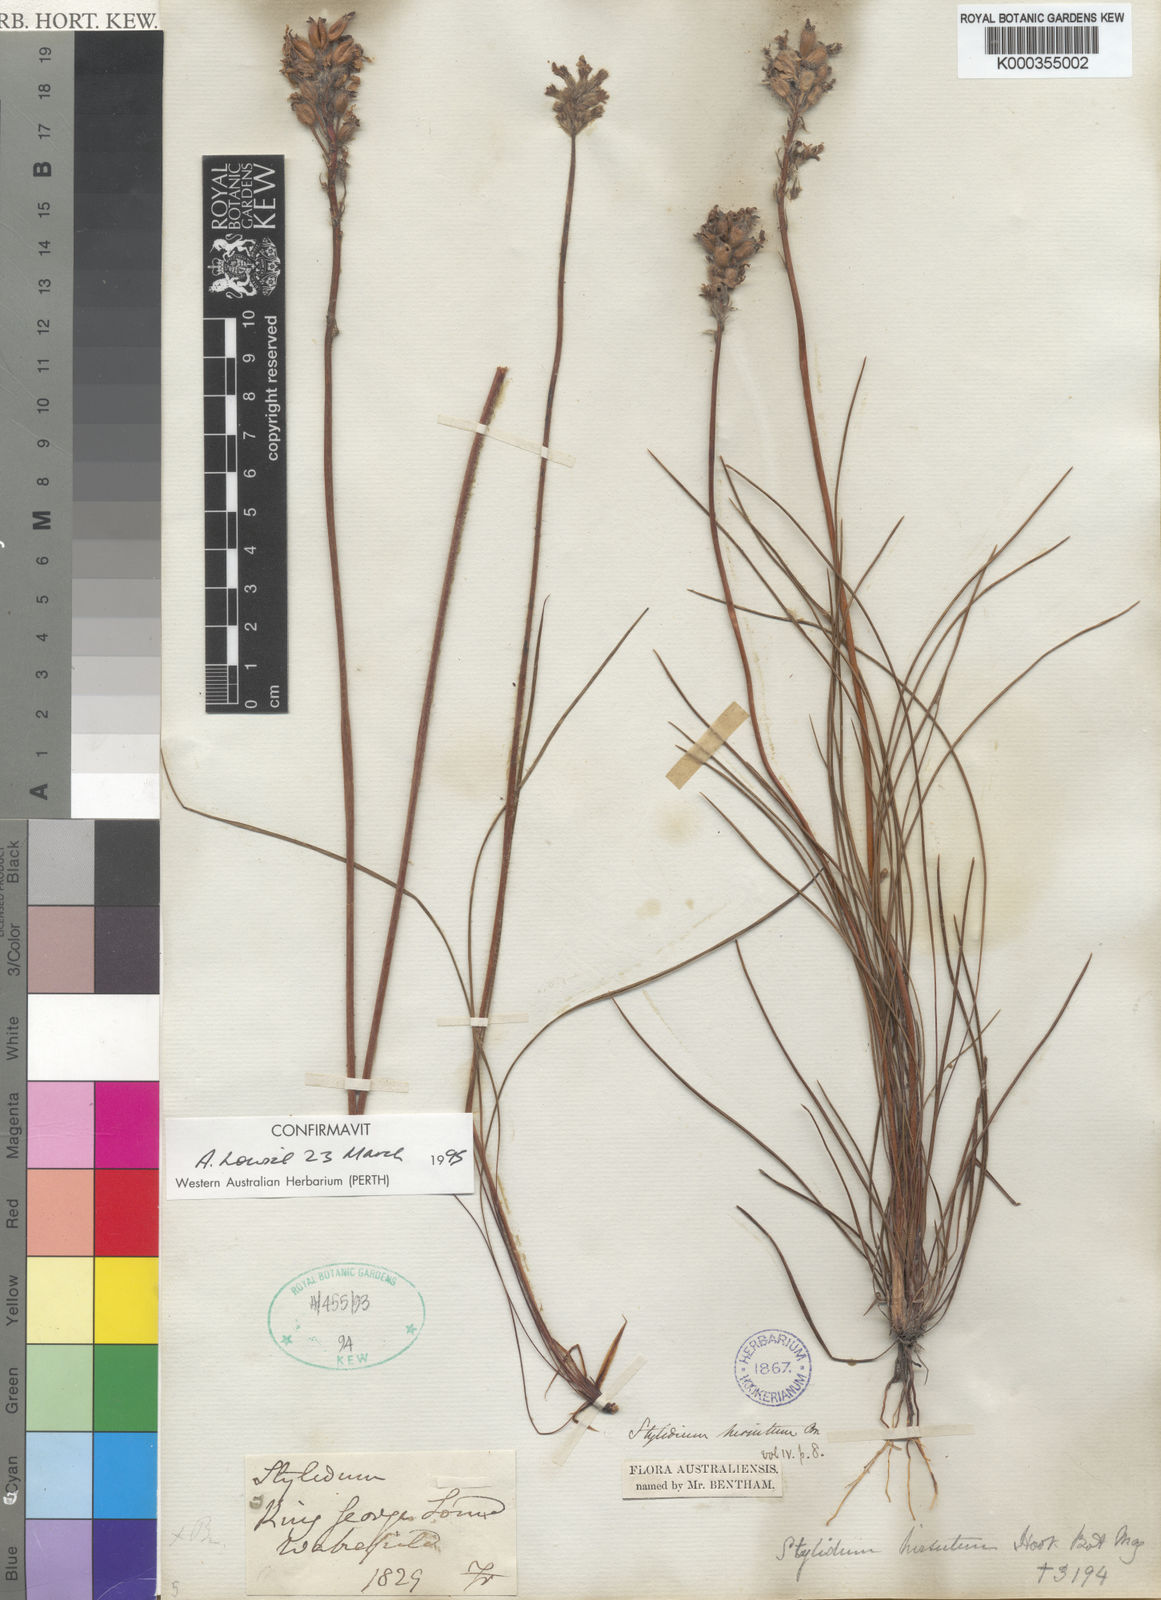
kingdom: Plantae
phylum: Tracheophyta
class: Magnoliopsida
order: Asterales
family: Stylidiaceae
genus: Stylidium
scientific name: Stylidium hirsutum
